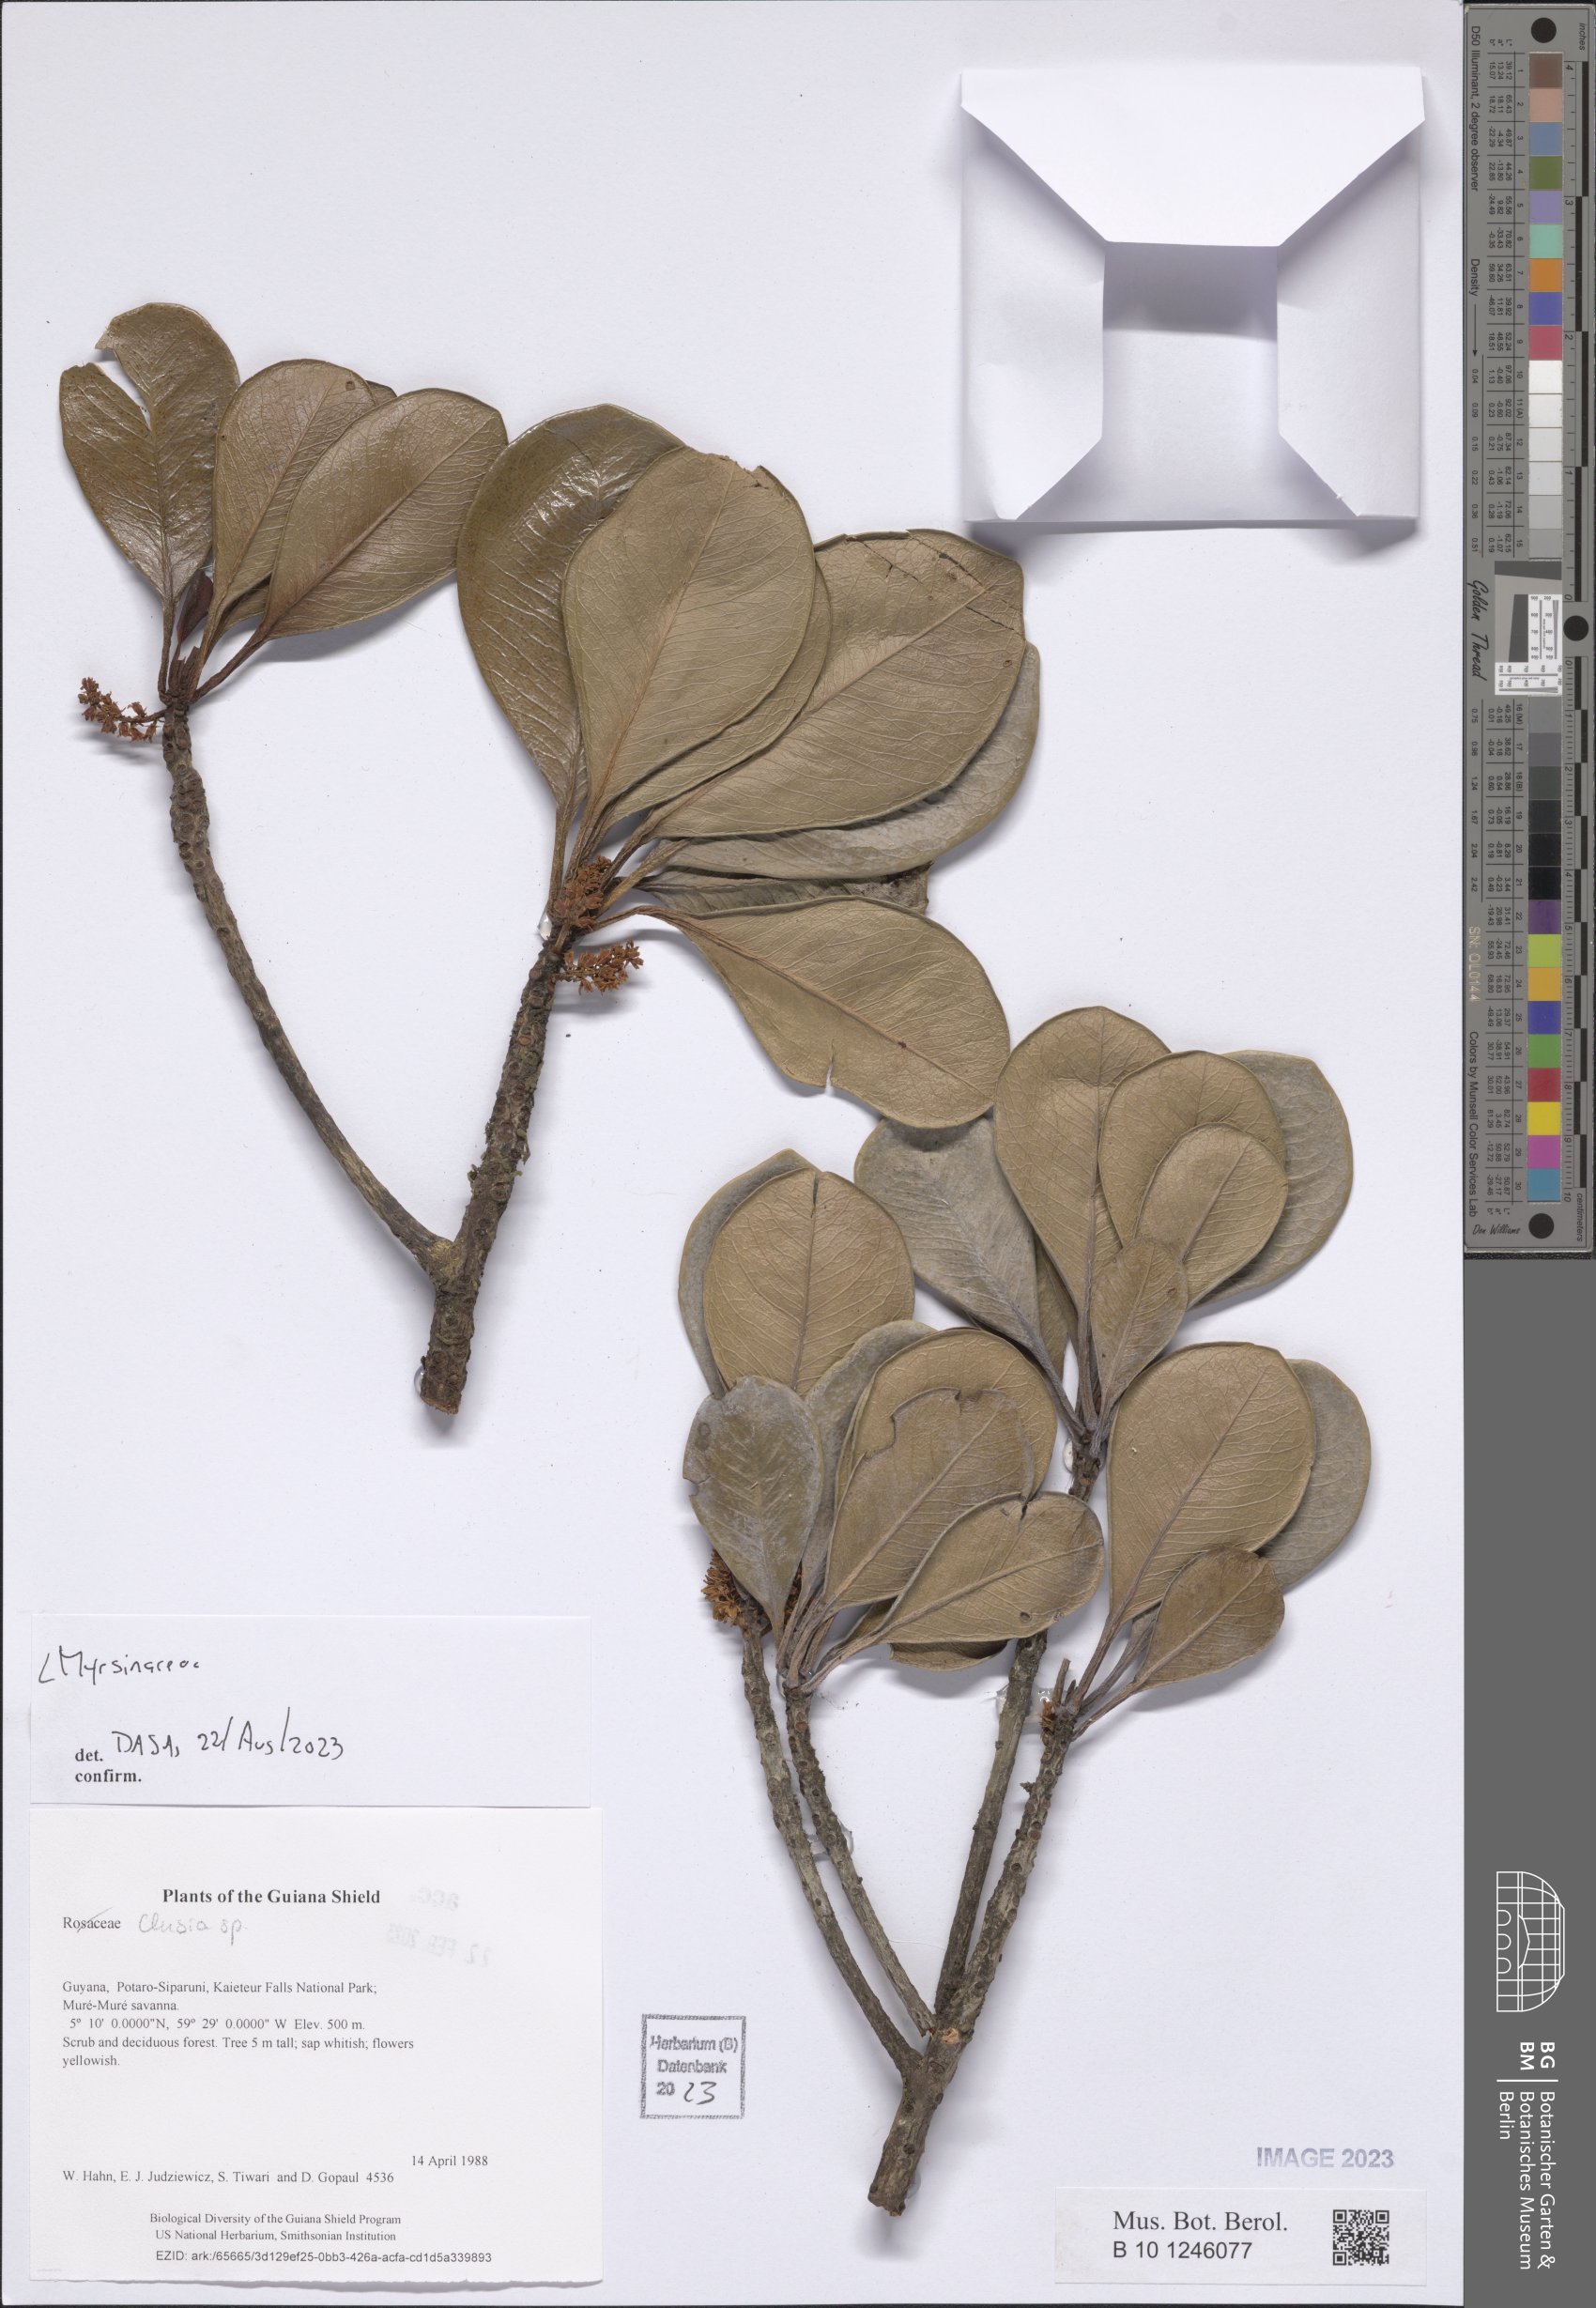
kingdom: Plantae
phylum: Tracheophyta
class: Magnoliopsida
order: Ericales
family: Primulaceae
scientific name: Primulaceae
